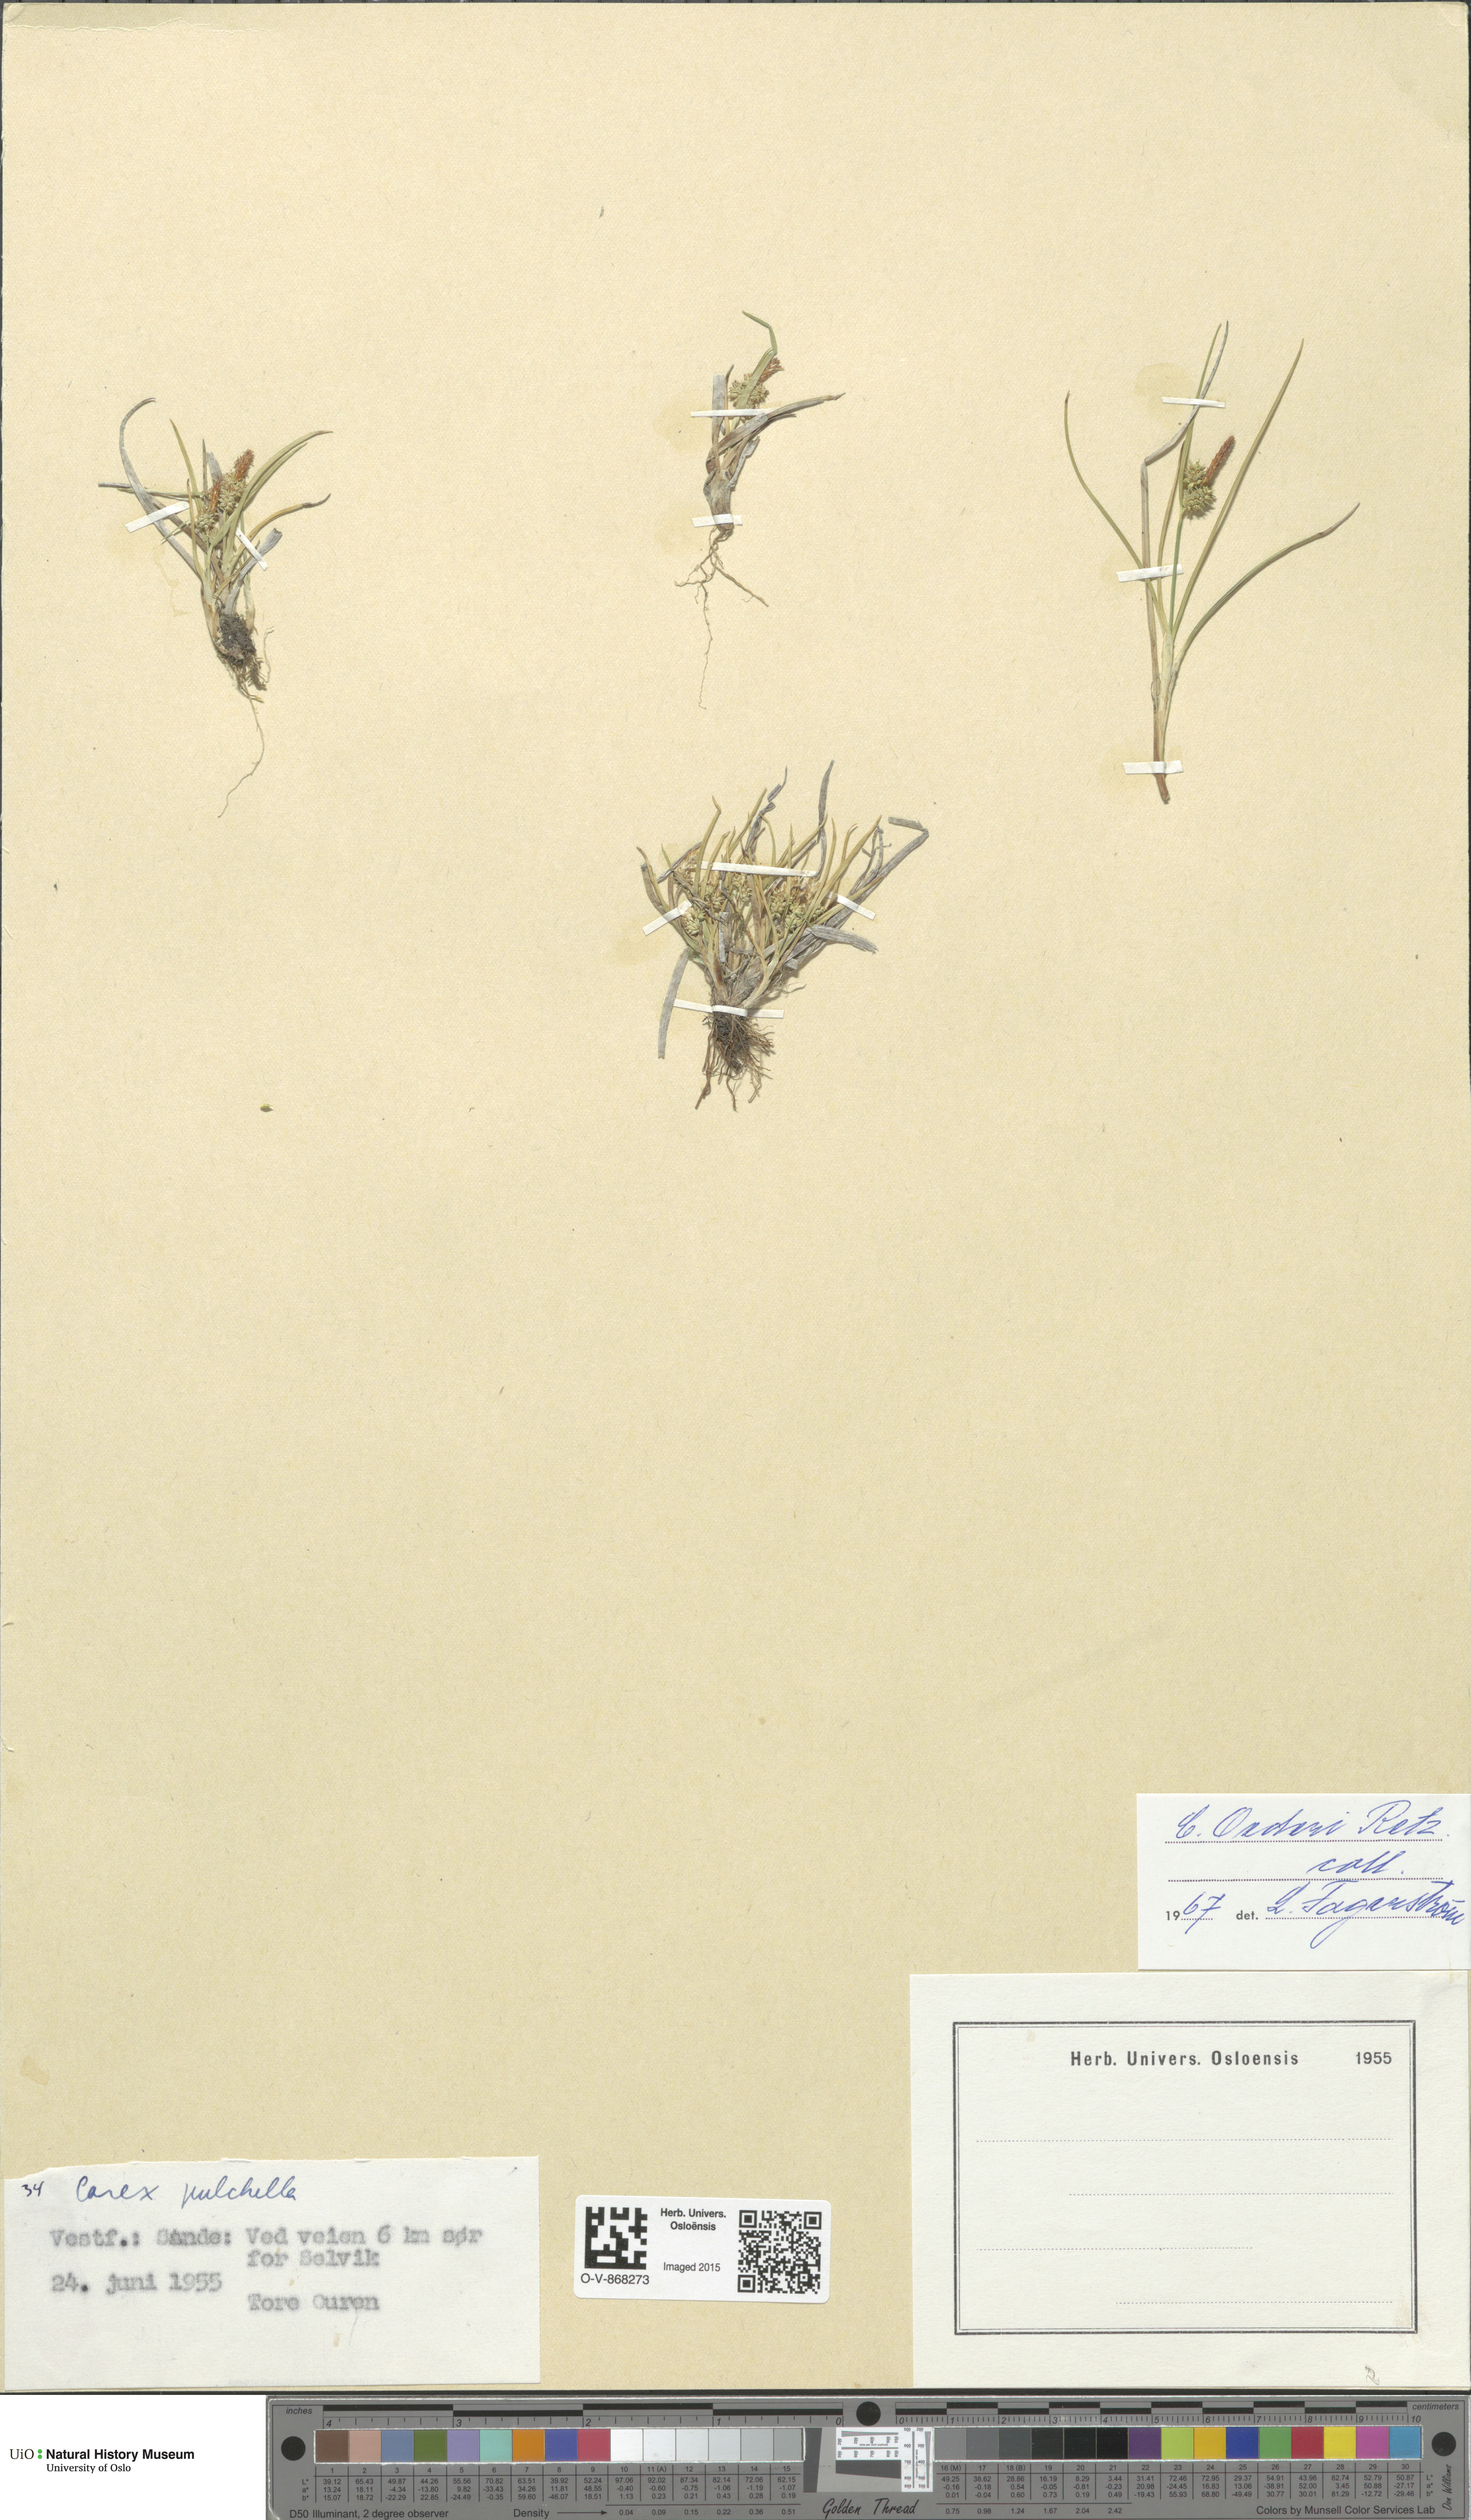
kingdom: Plantae
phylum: Tracheophyta
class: Liliopsida
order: Poales
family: Cyperaceae
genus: Carex
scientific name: Carex oederi
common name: Common & small-fruited yellow-sedge
